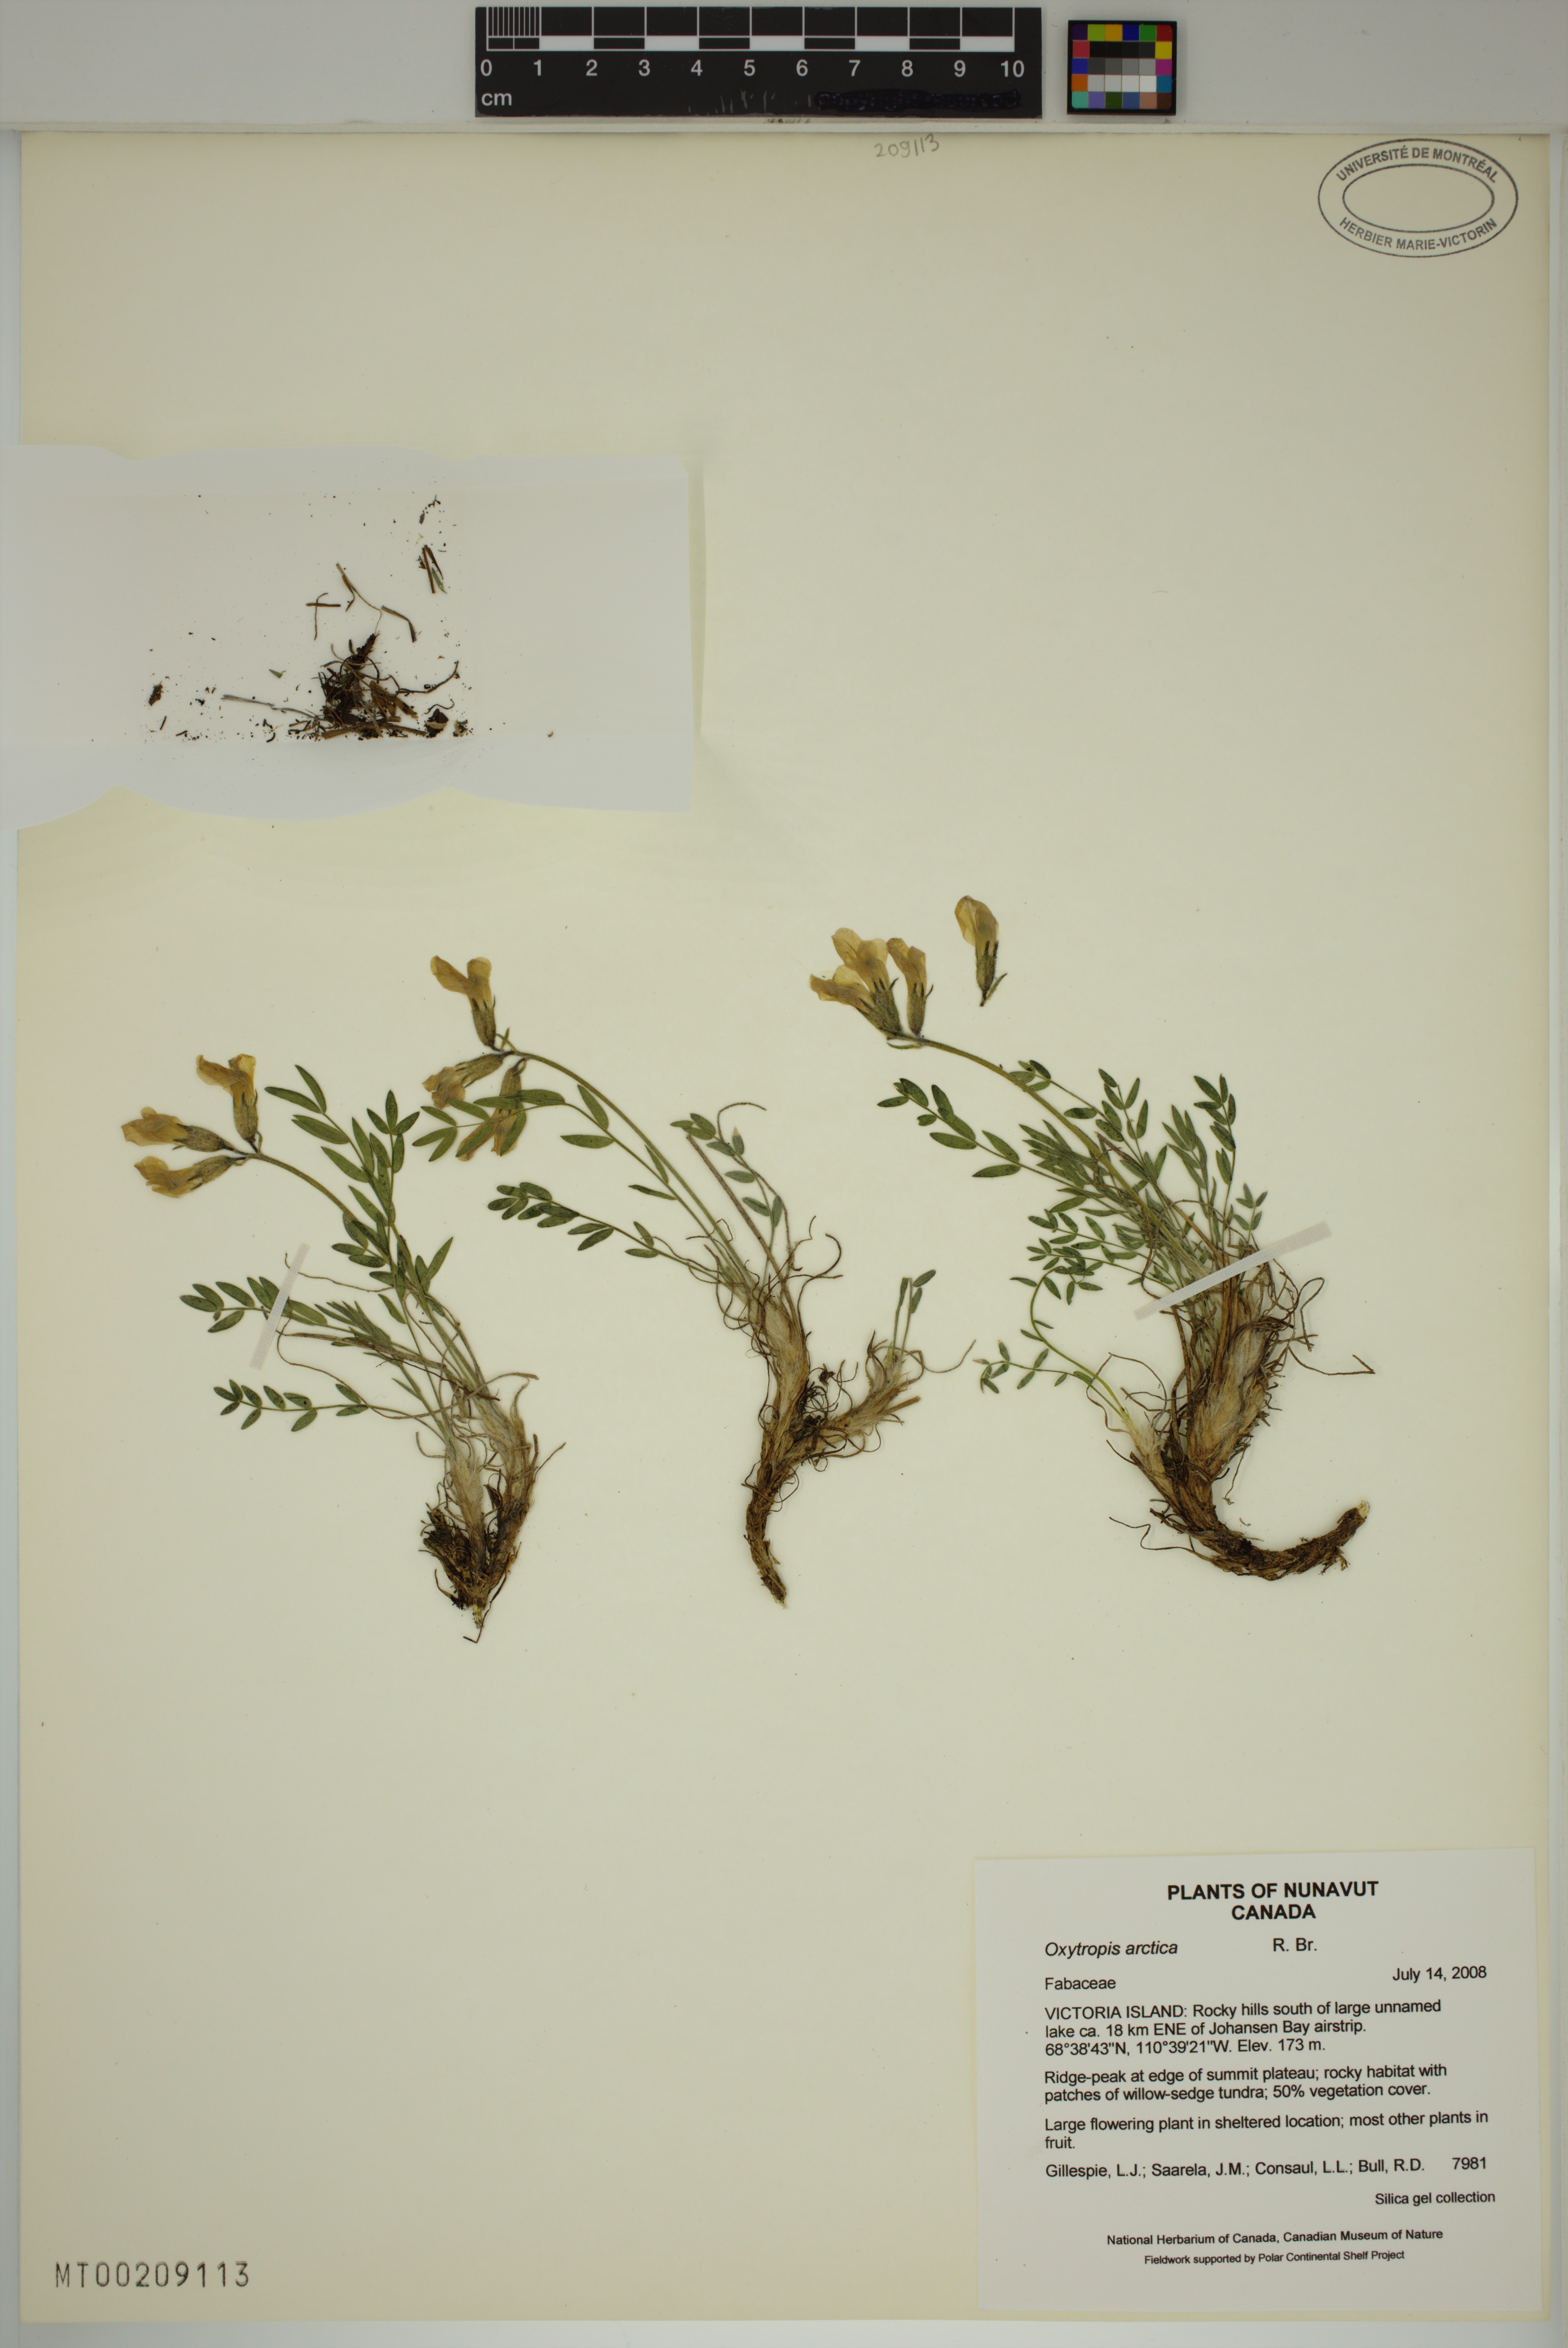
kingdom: Plantae
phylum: Tracheophyta
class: Magnoliopsida
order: Fabales
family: Fabaceae
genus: Oxytropis
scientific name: Oxytropis arctica
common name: Arctic locoweed
